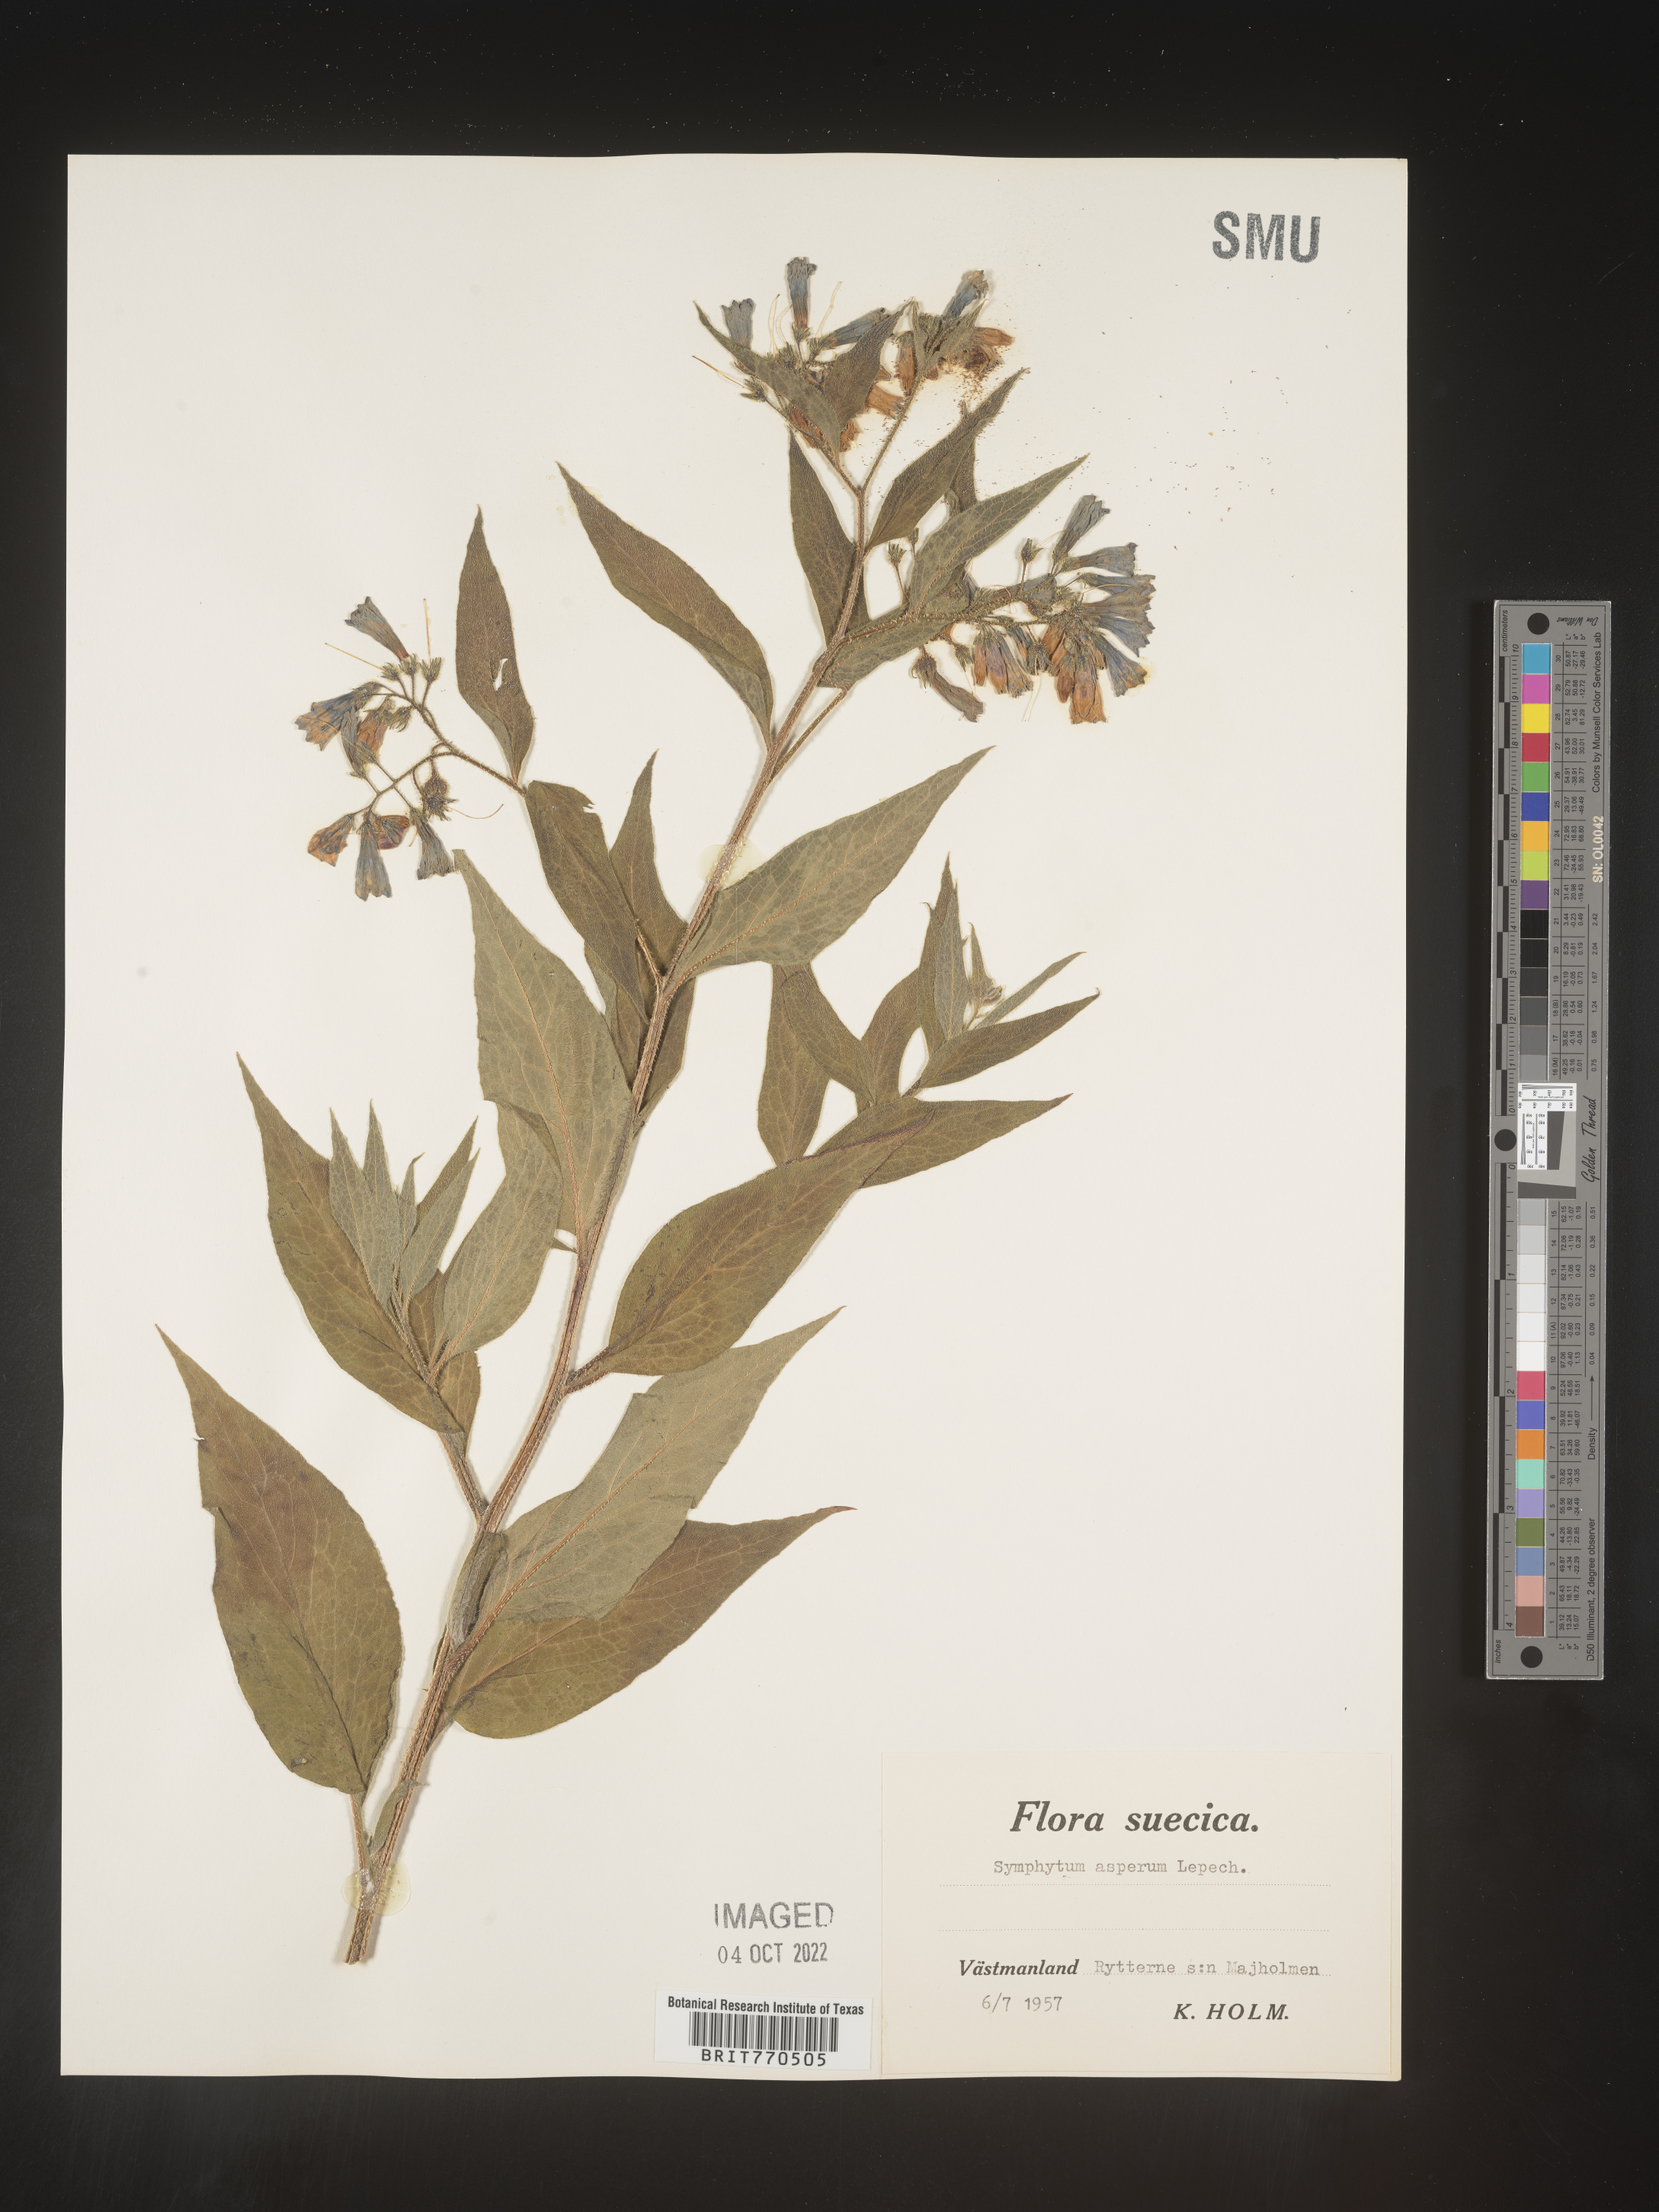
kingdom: Plantae
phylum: Tracheophyta
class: Magnoliopsida
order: Boraginales
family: Boraginaceae
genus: Symphytum
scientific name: Symphytum
